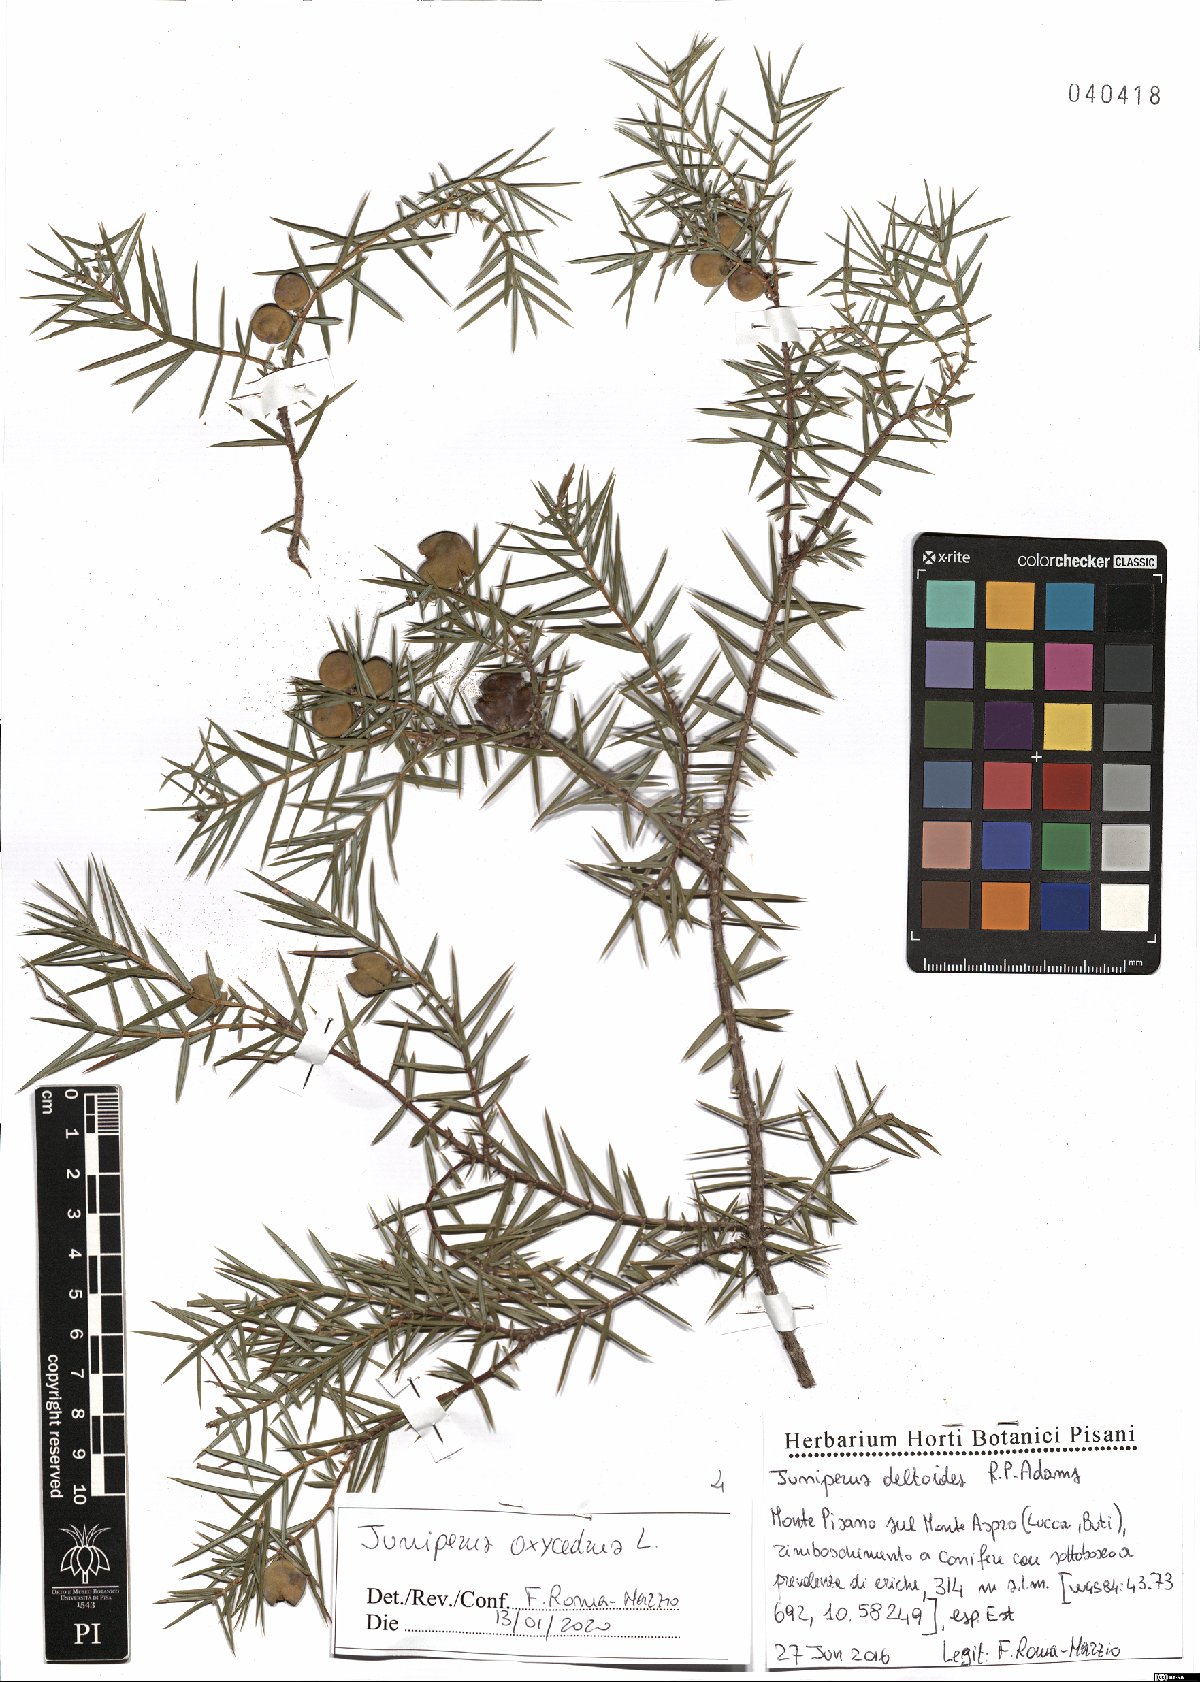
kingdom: Plantae
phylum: Tracheophyta
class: Pinopsida
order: Pinales
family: Cupressaceae
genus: Juniperus
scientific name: Juniperus oxycedrus
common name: Prickly juniper
